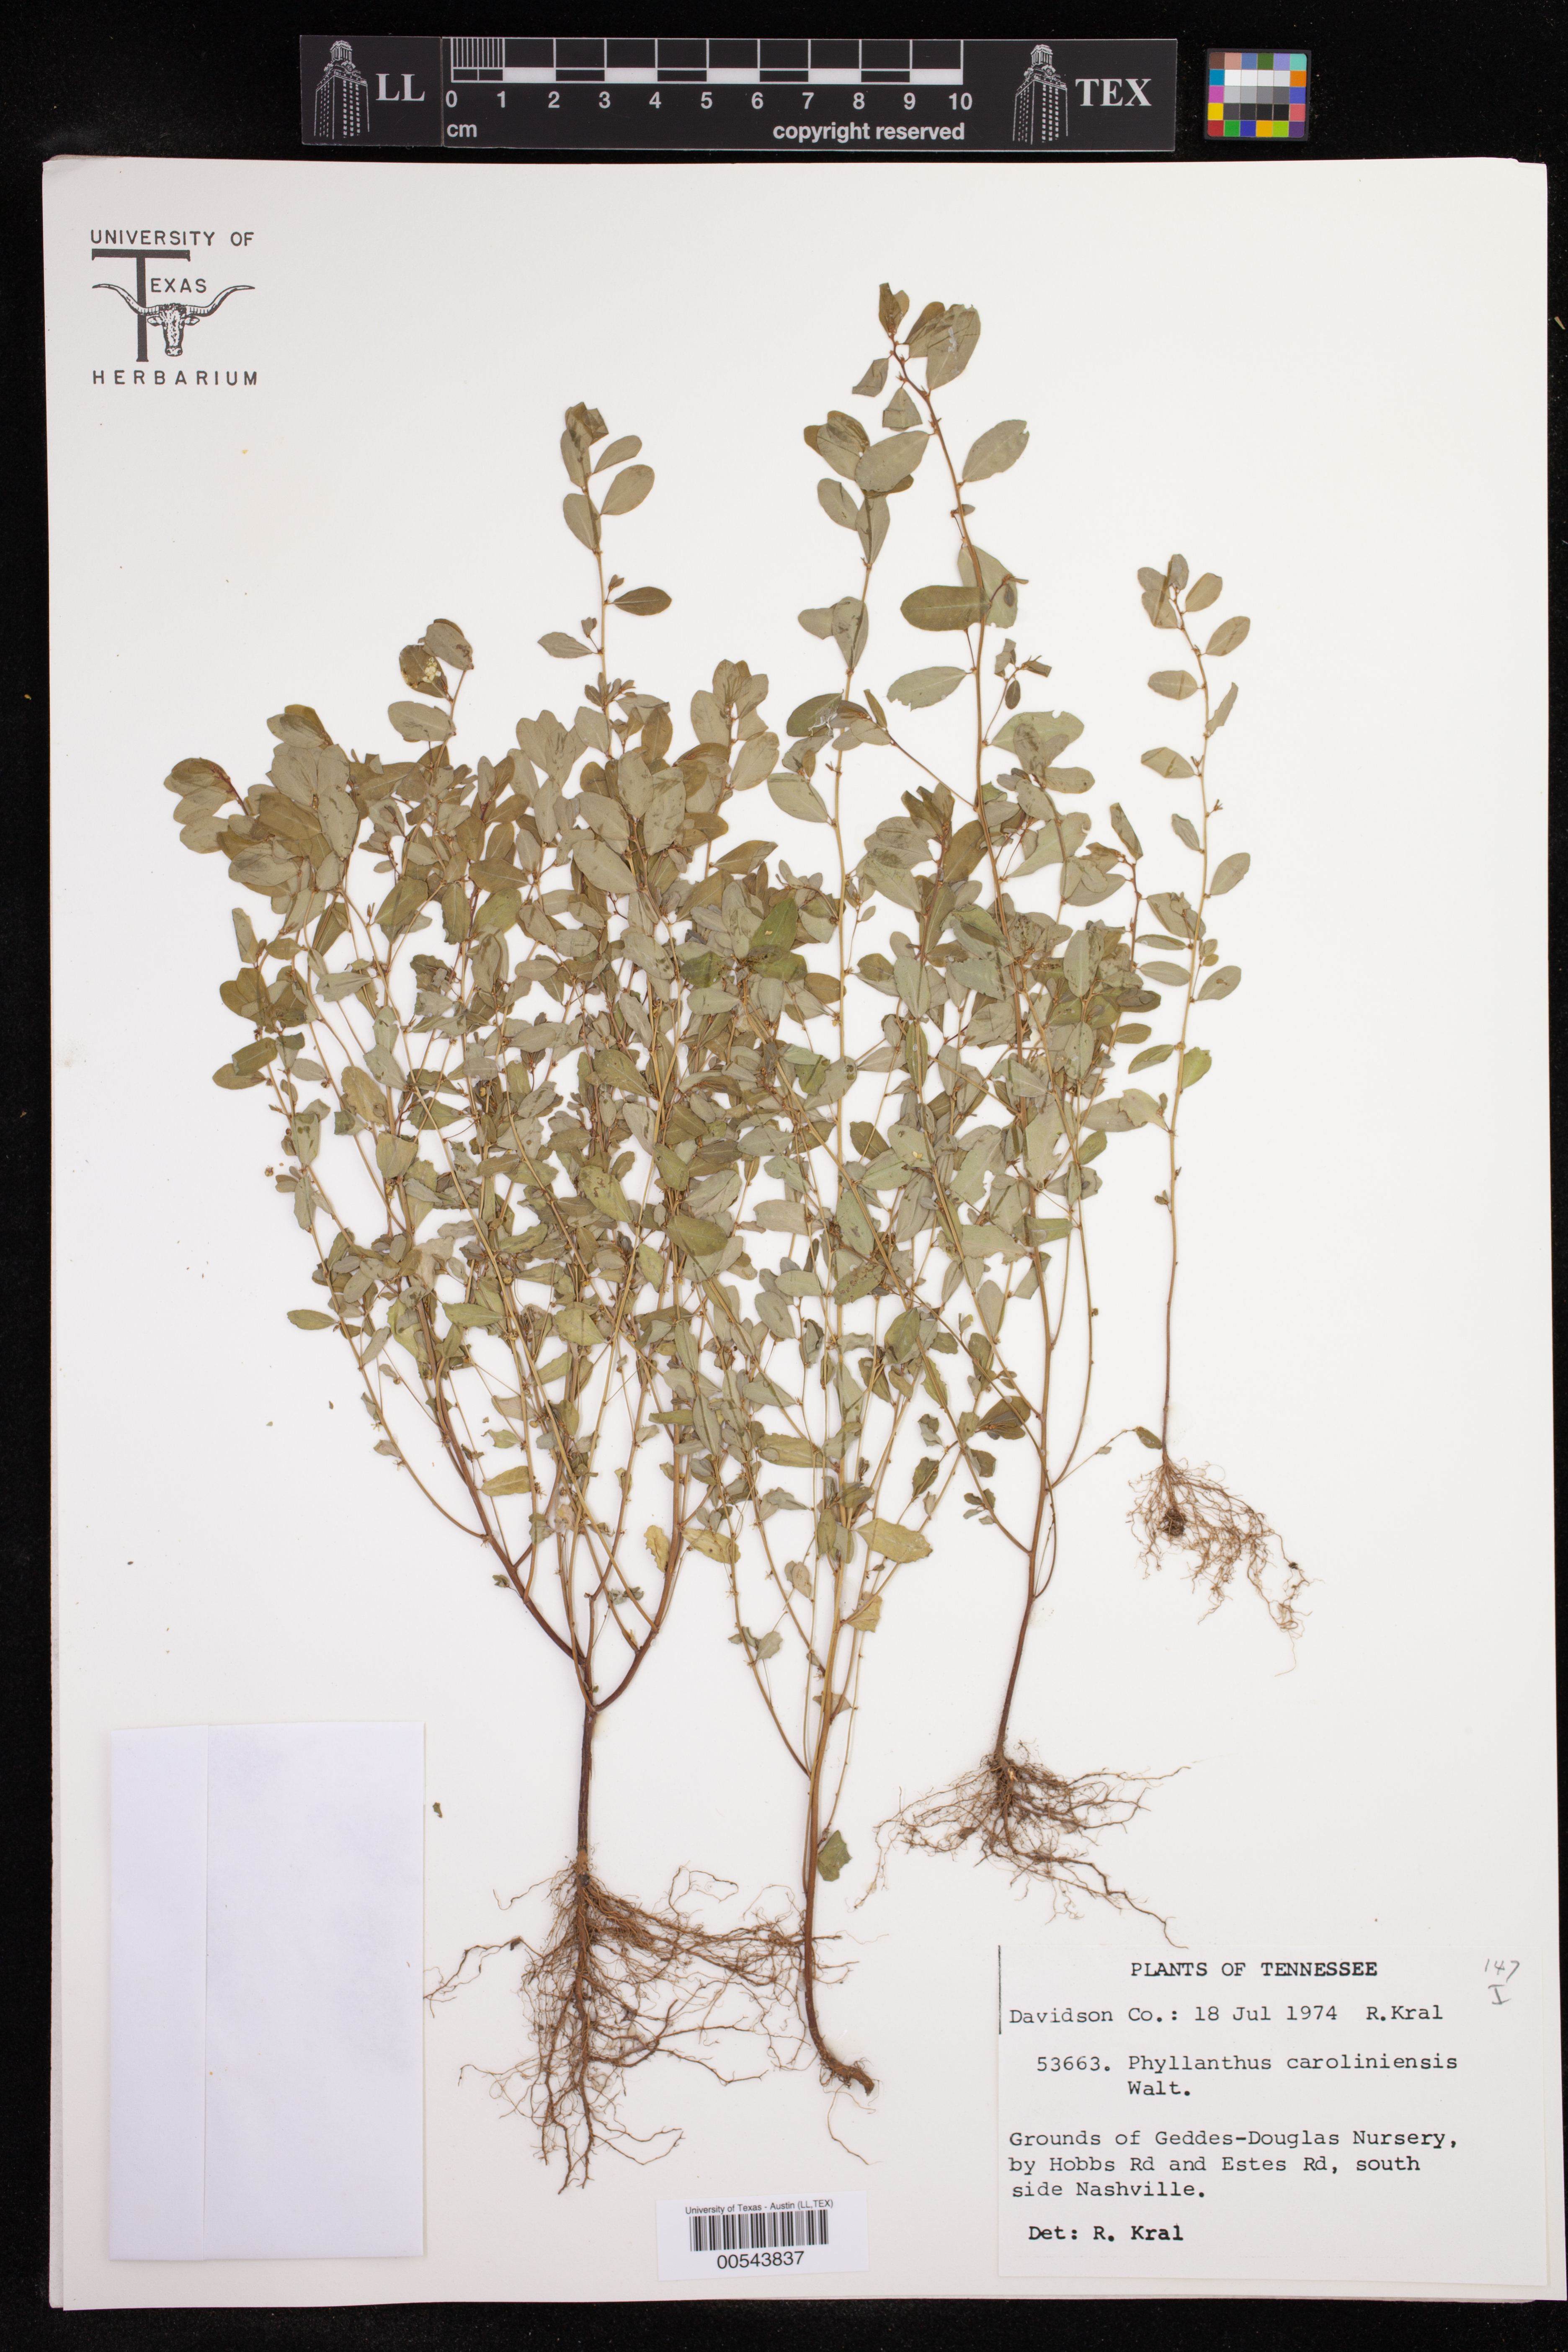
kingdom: Plantae
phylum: Tracheophyta
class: Magnoliopsida
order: Malpighiales
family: Phyllanthaceae
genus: Phyllanthus
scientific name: Phyllanthus caroliniensis
